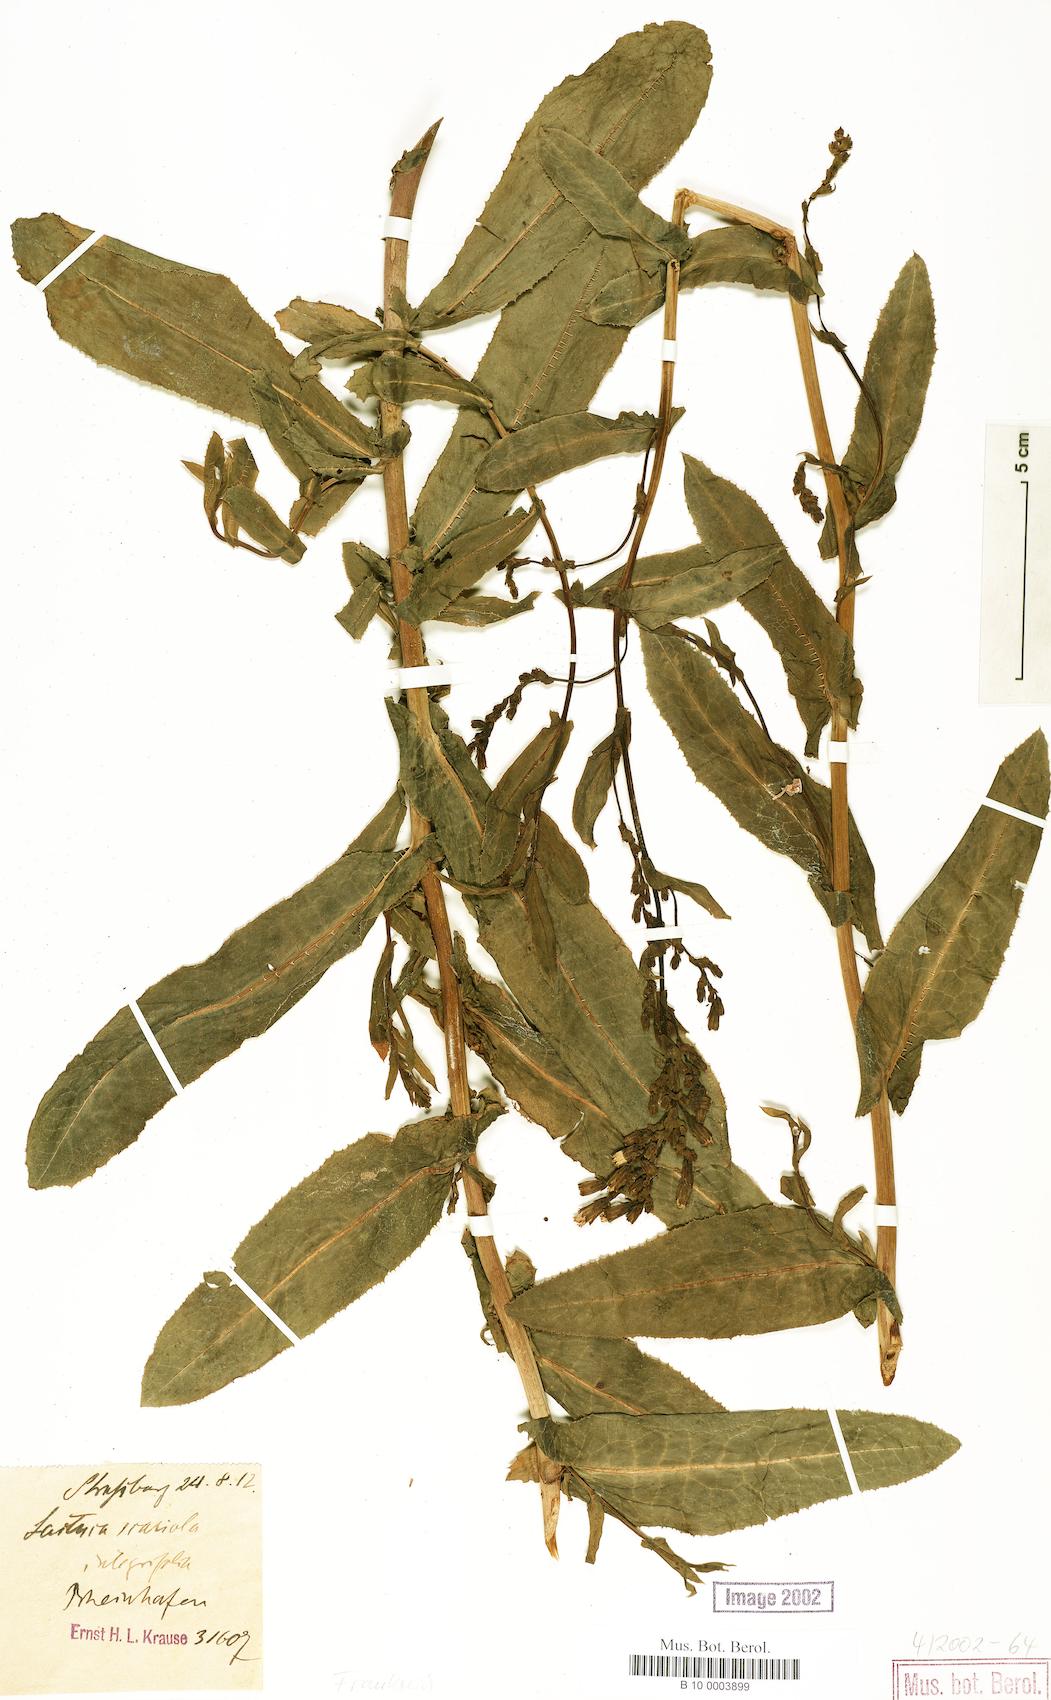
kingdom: Plantae
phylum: Tracheophyta
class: Magnoliopsida
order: Asterales
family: Asteraceae
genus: Lactuca
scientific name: Lactuca serriola
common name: Prickly lettuce
